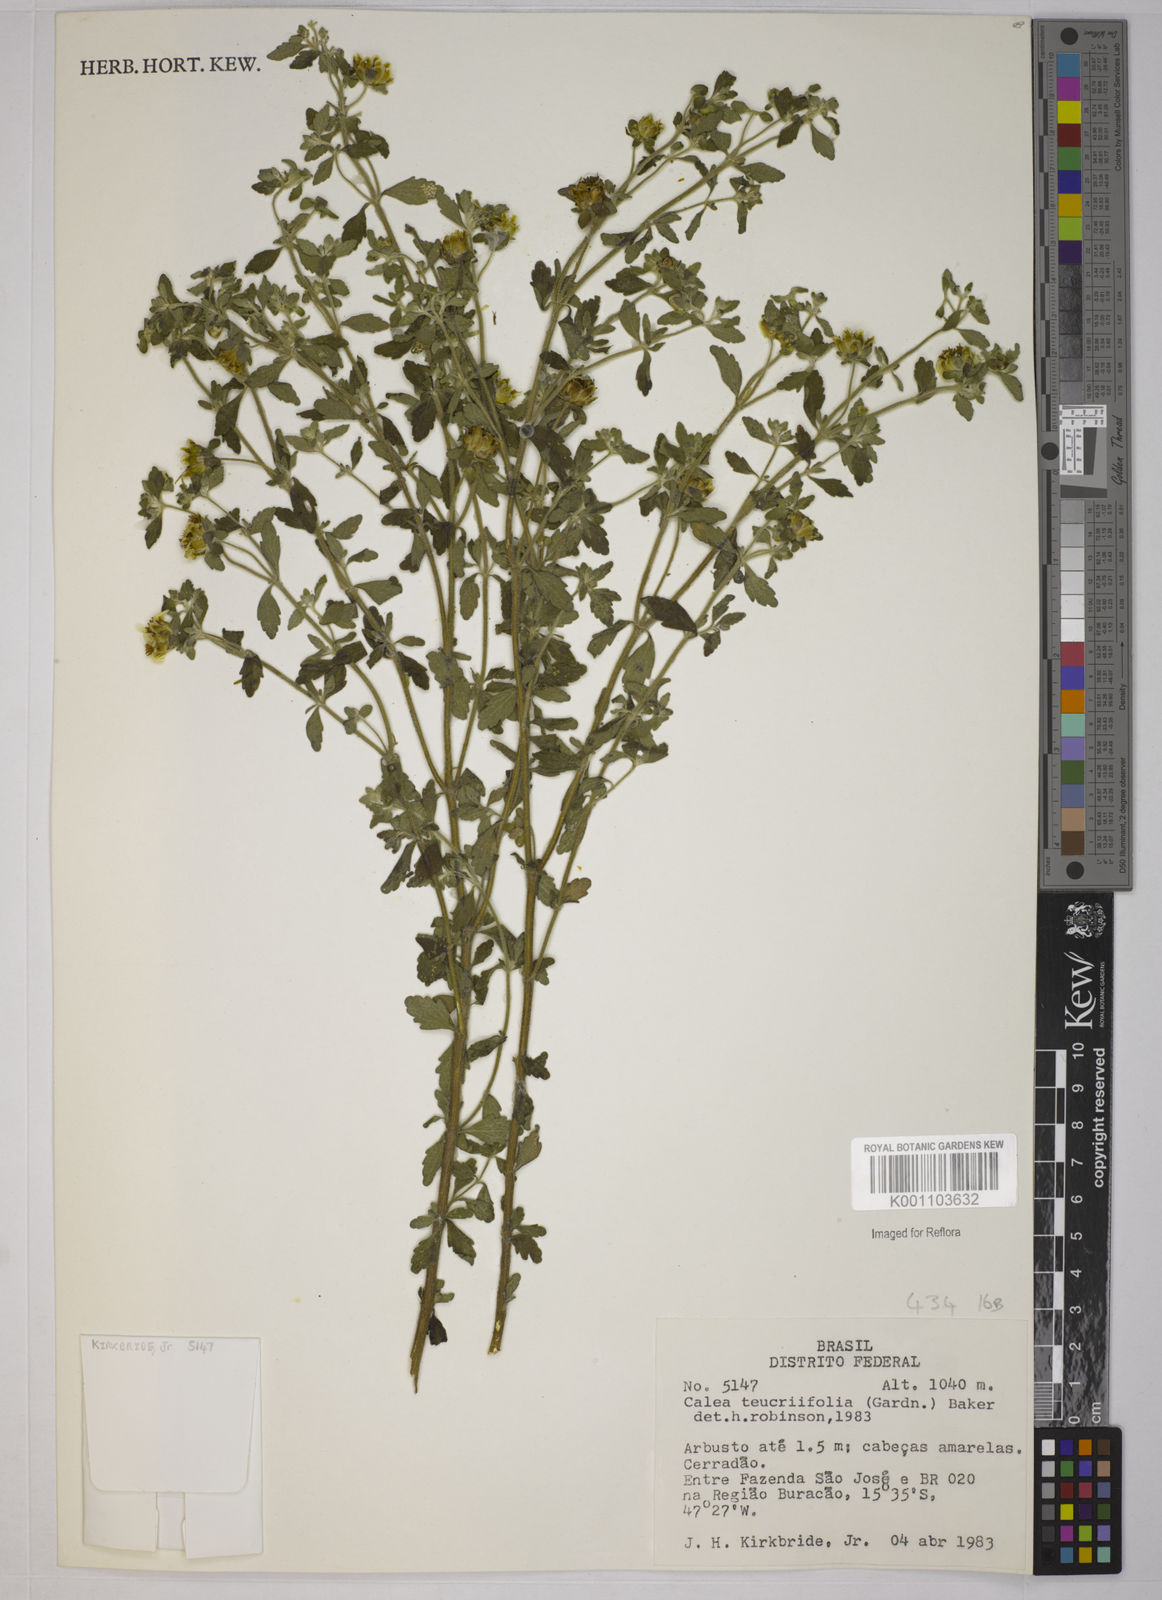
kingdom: Plantae
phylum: Tracheophyta
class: Magnoliopsida
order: Asterales
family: Asteraceae
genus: Calea
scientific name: Calea teucriifolia
